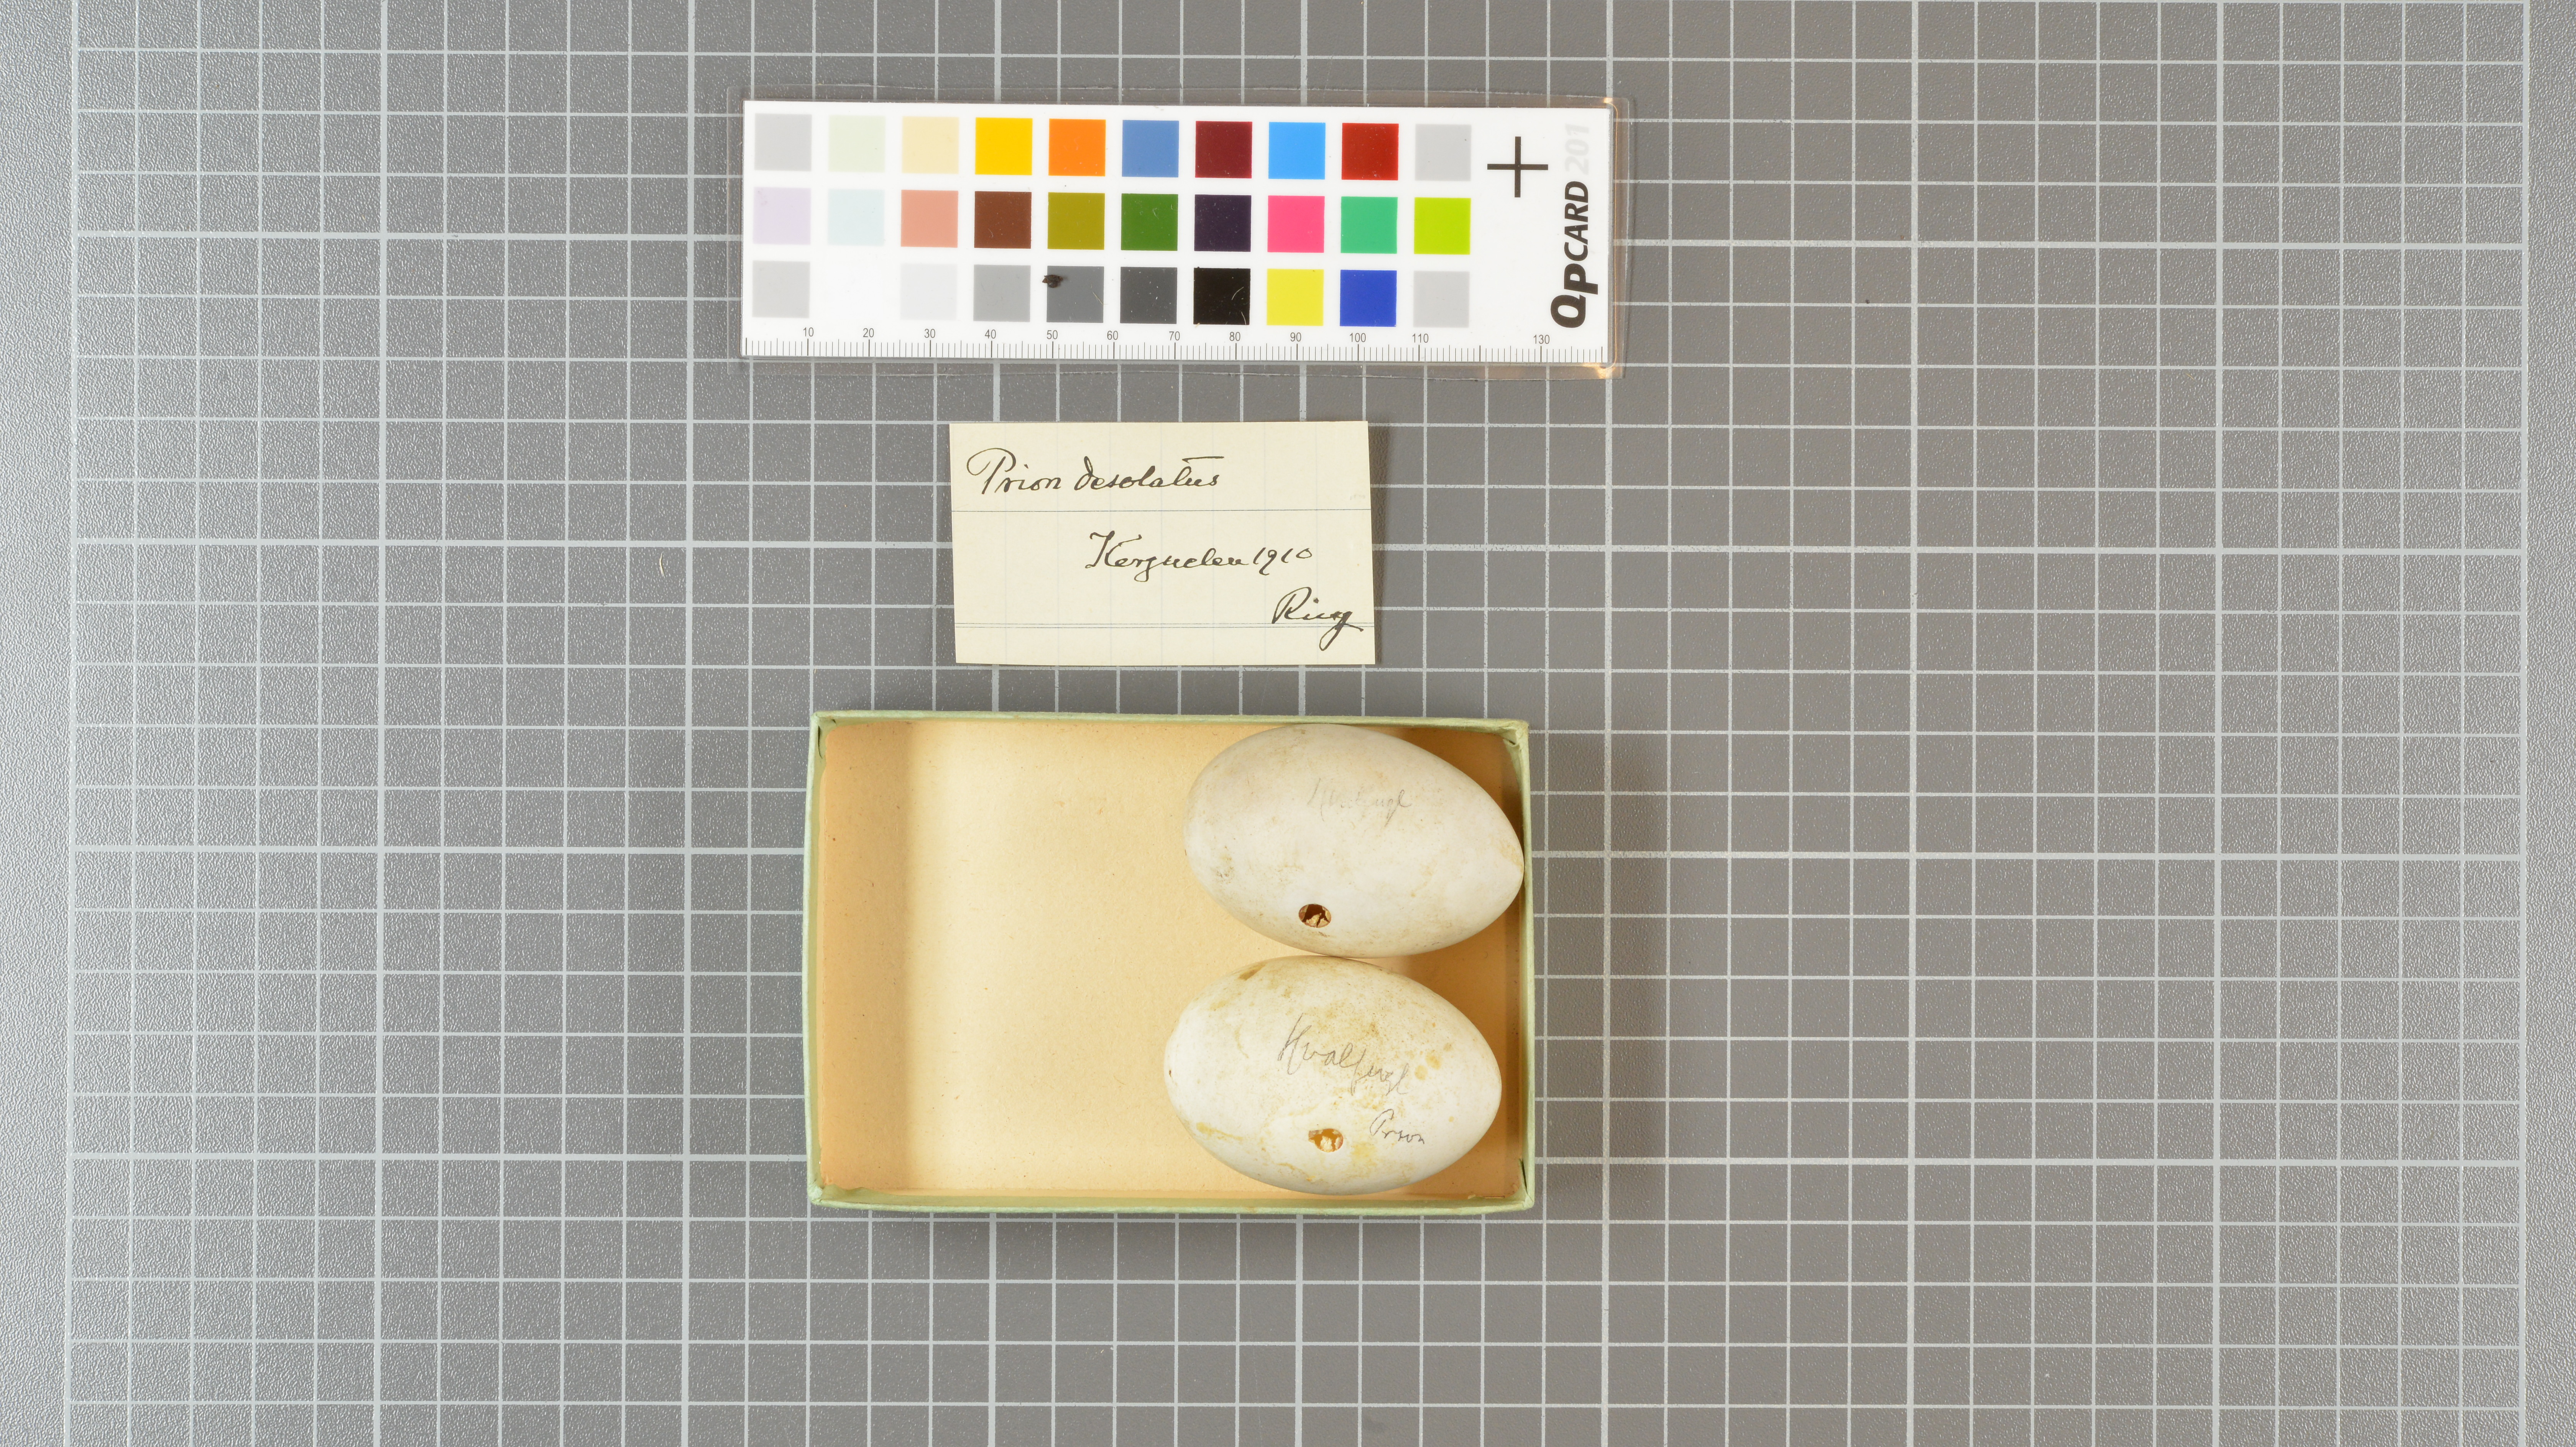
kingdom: Animalia
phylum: Chordata
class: Aves
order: Procellariiformes
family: Procellariidae
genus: Pachyptila
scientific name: Pachyptila desolata
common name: Antarctic prion
